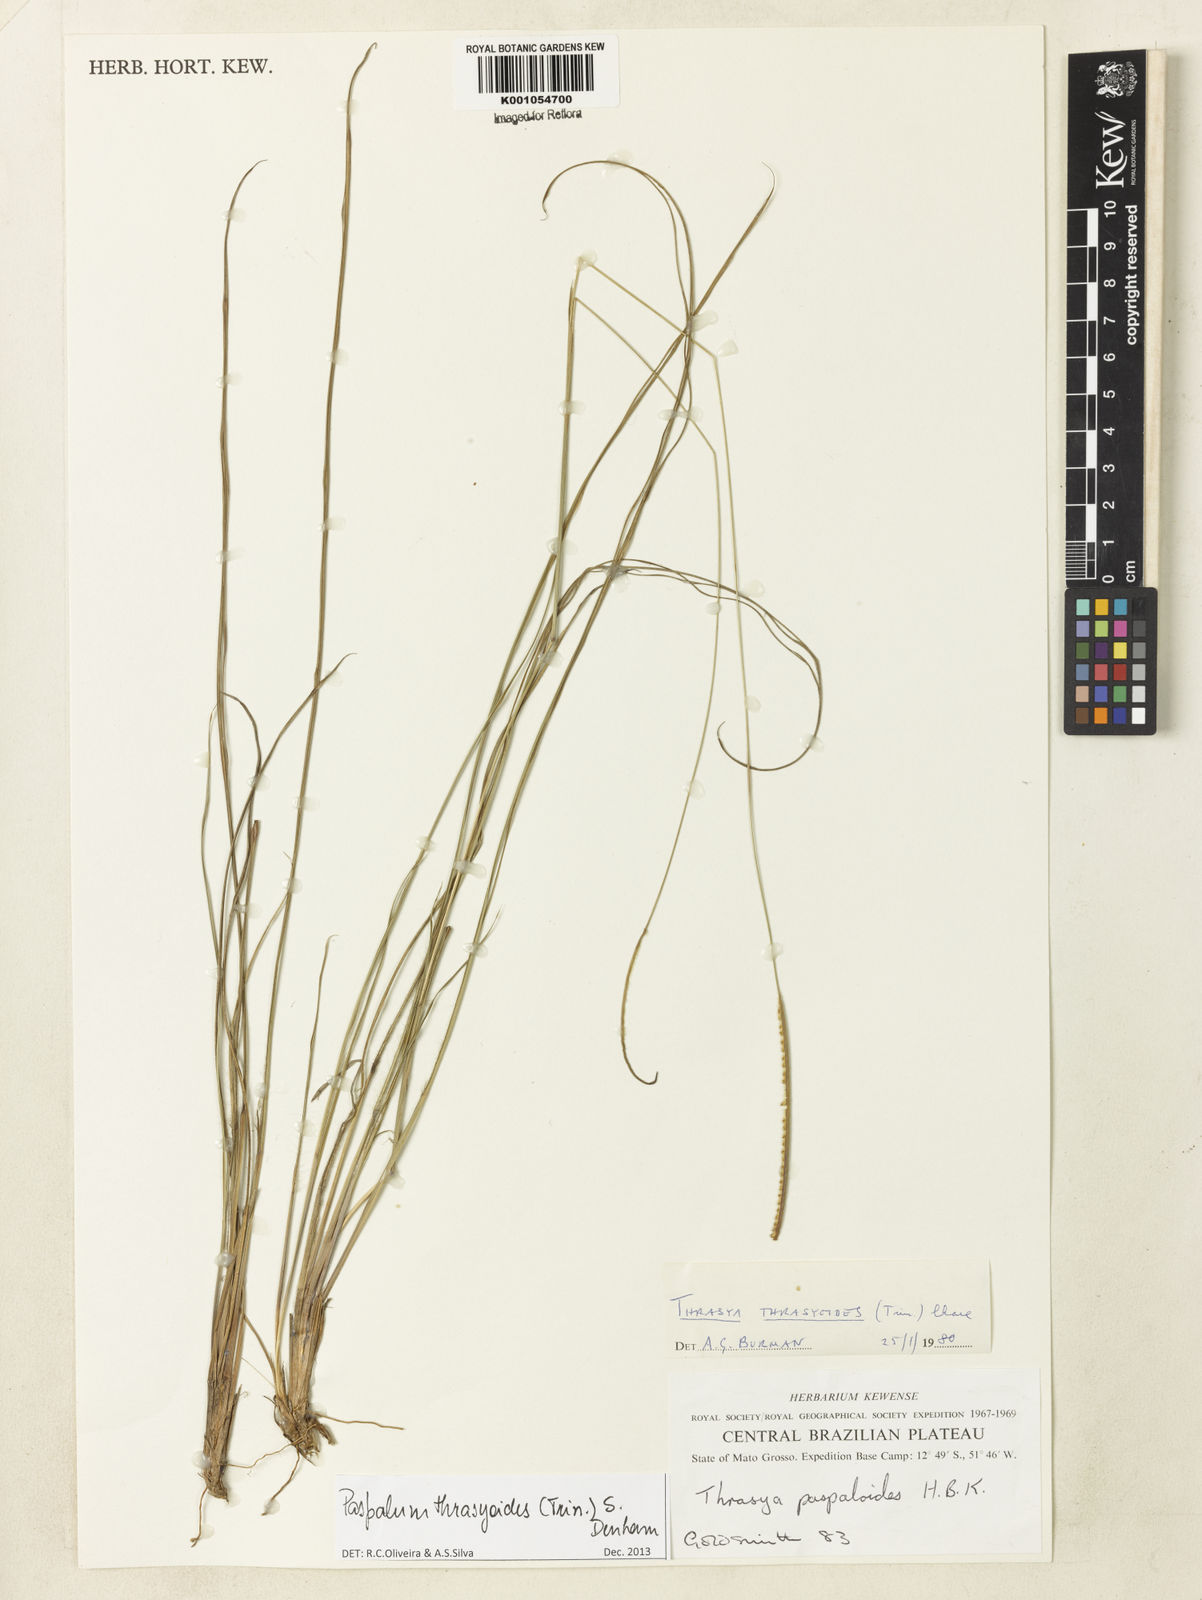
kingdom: Plantae
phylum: Tracheophyta
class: Liliopsida
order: Poales
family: Poaceae
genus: Paspalum
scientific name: Paspalum thrasyoides
